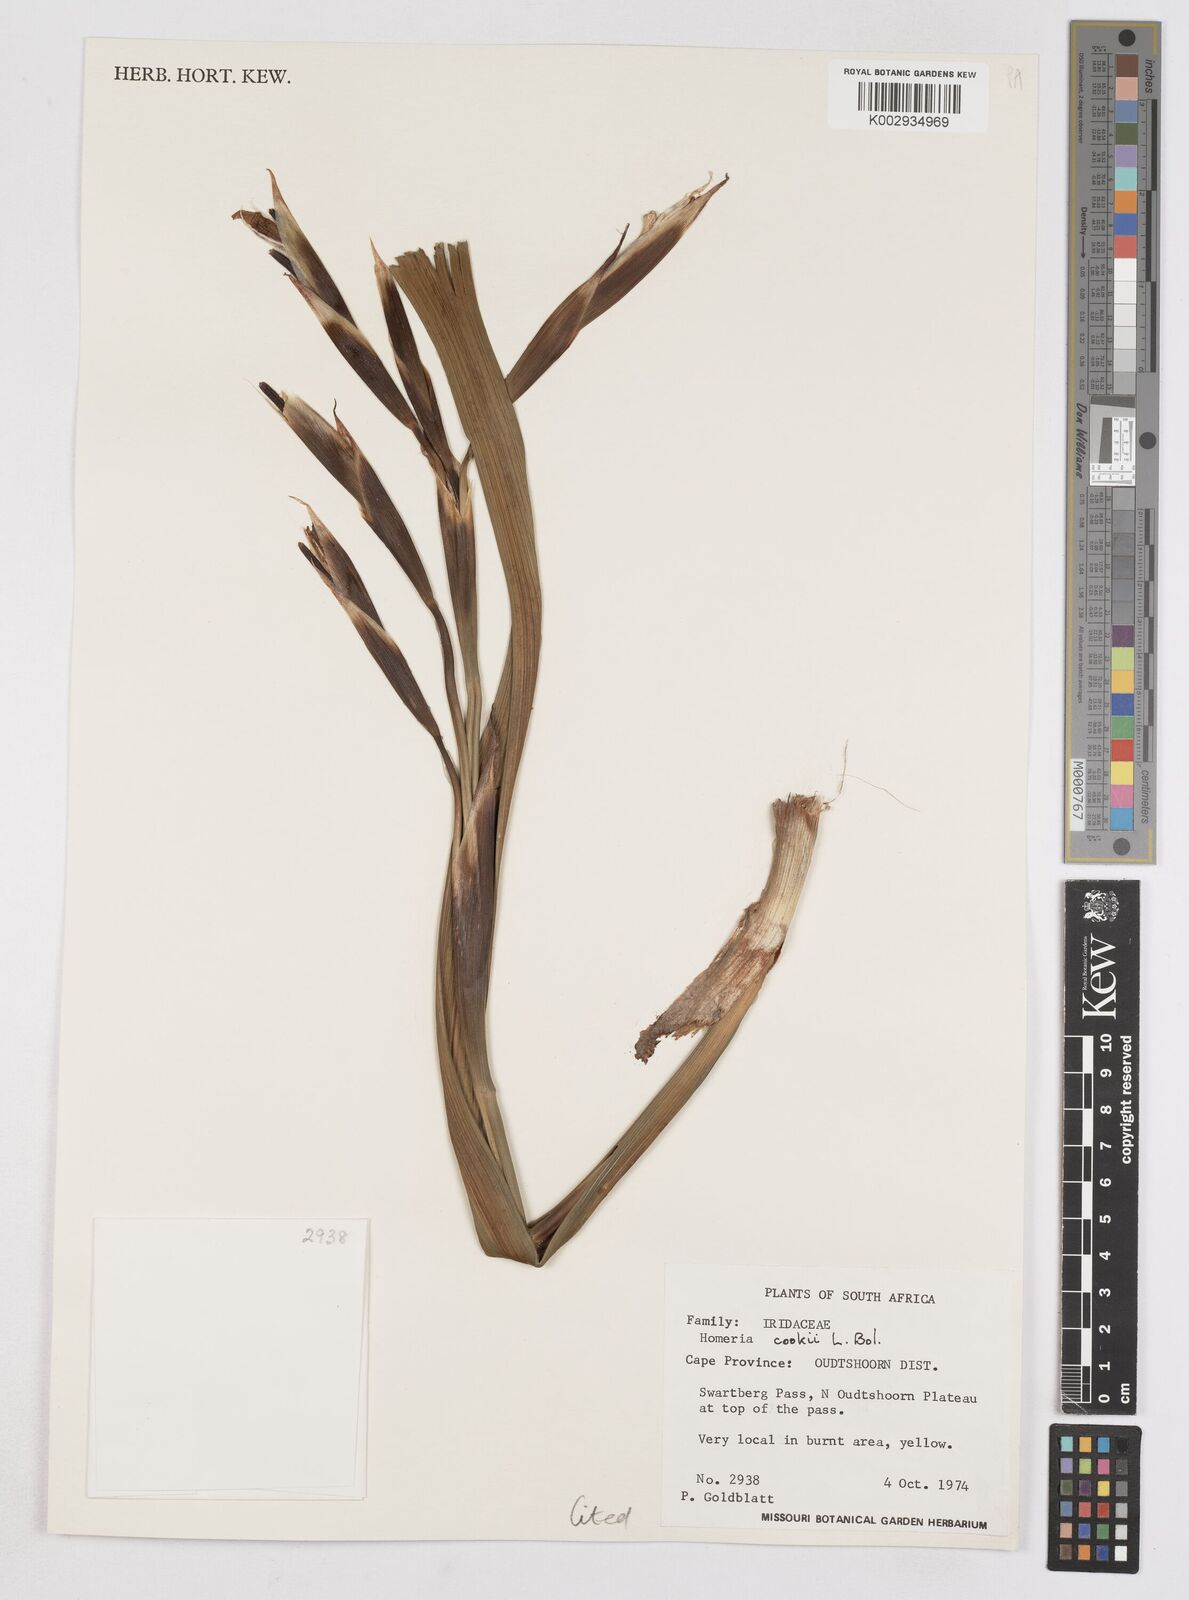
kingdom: Plantae
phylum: Tracheophyta
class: Liliopsida
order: Asparagales
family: Iridaceae
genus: Moraea
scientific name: Moraea cookii
